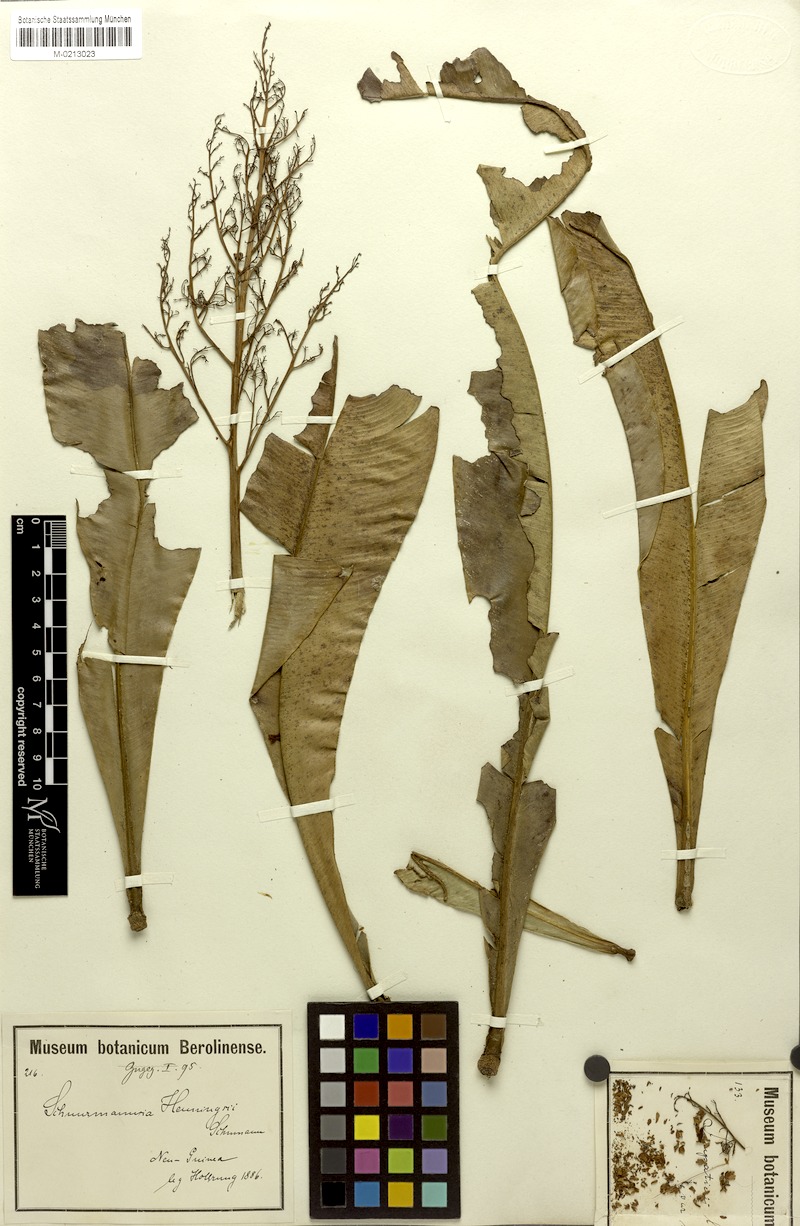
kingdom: Plantae
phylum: Tracheophyta
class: Magnoliopsida
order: Malpighiales
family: Ochnaceae
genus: Schuurmansia
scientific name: Schuurmansia henningsii
